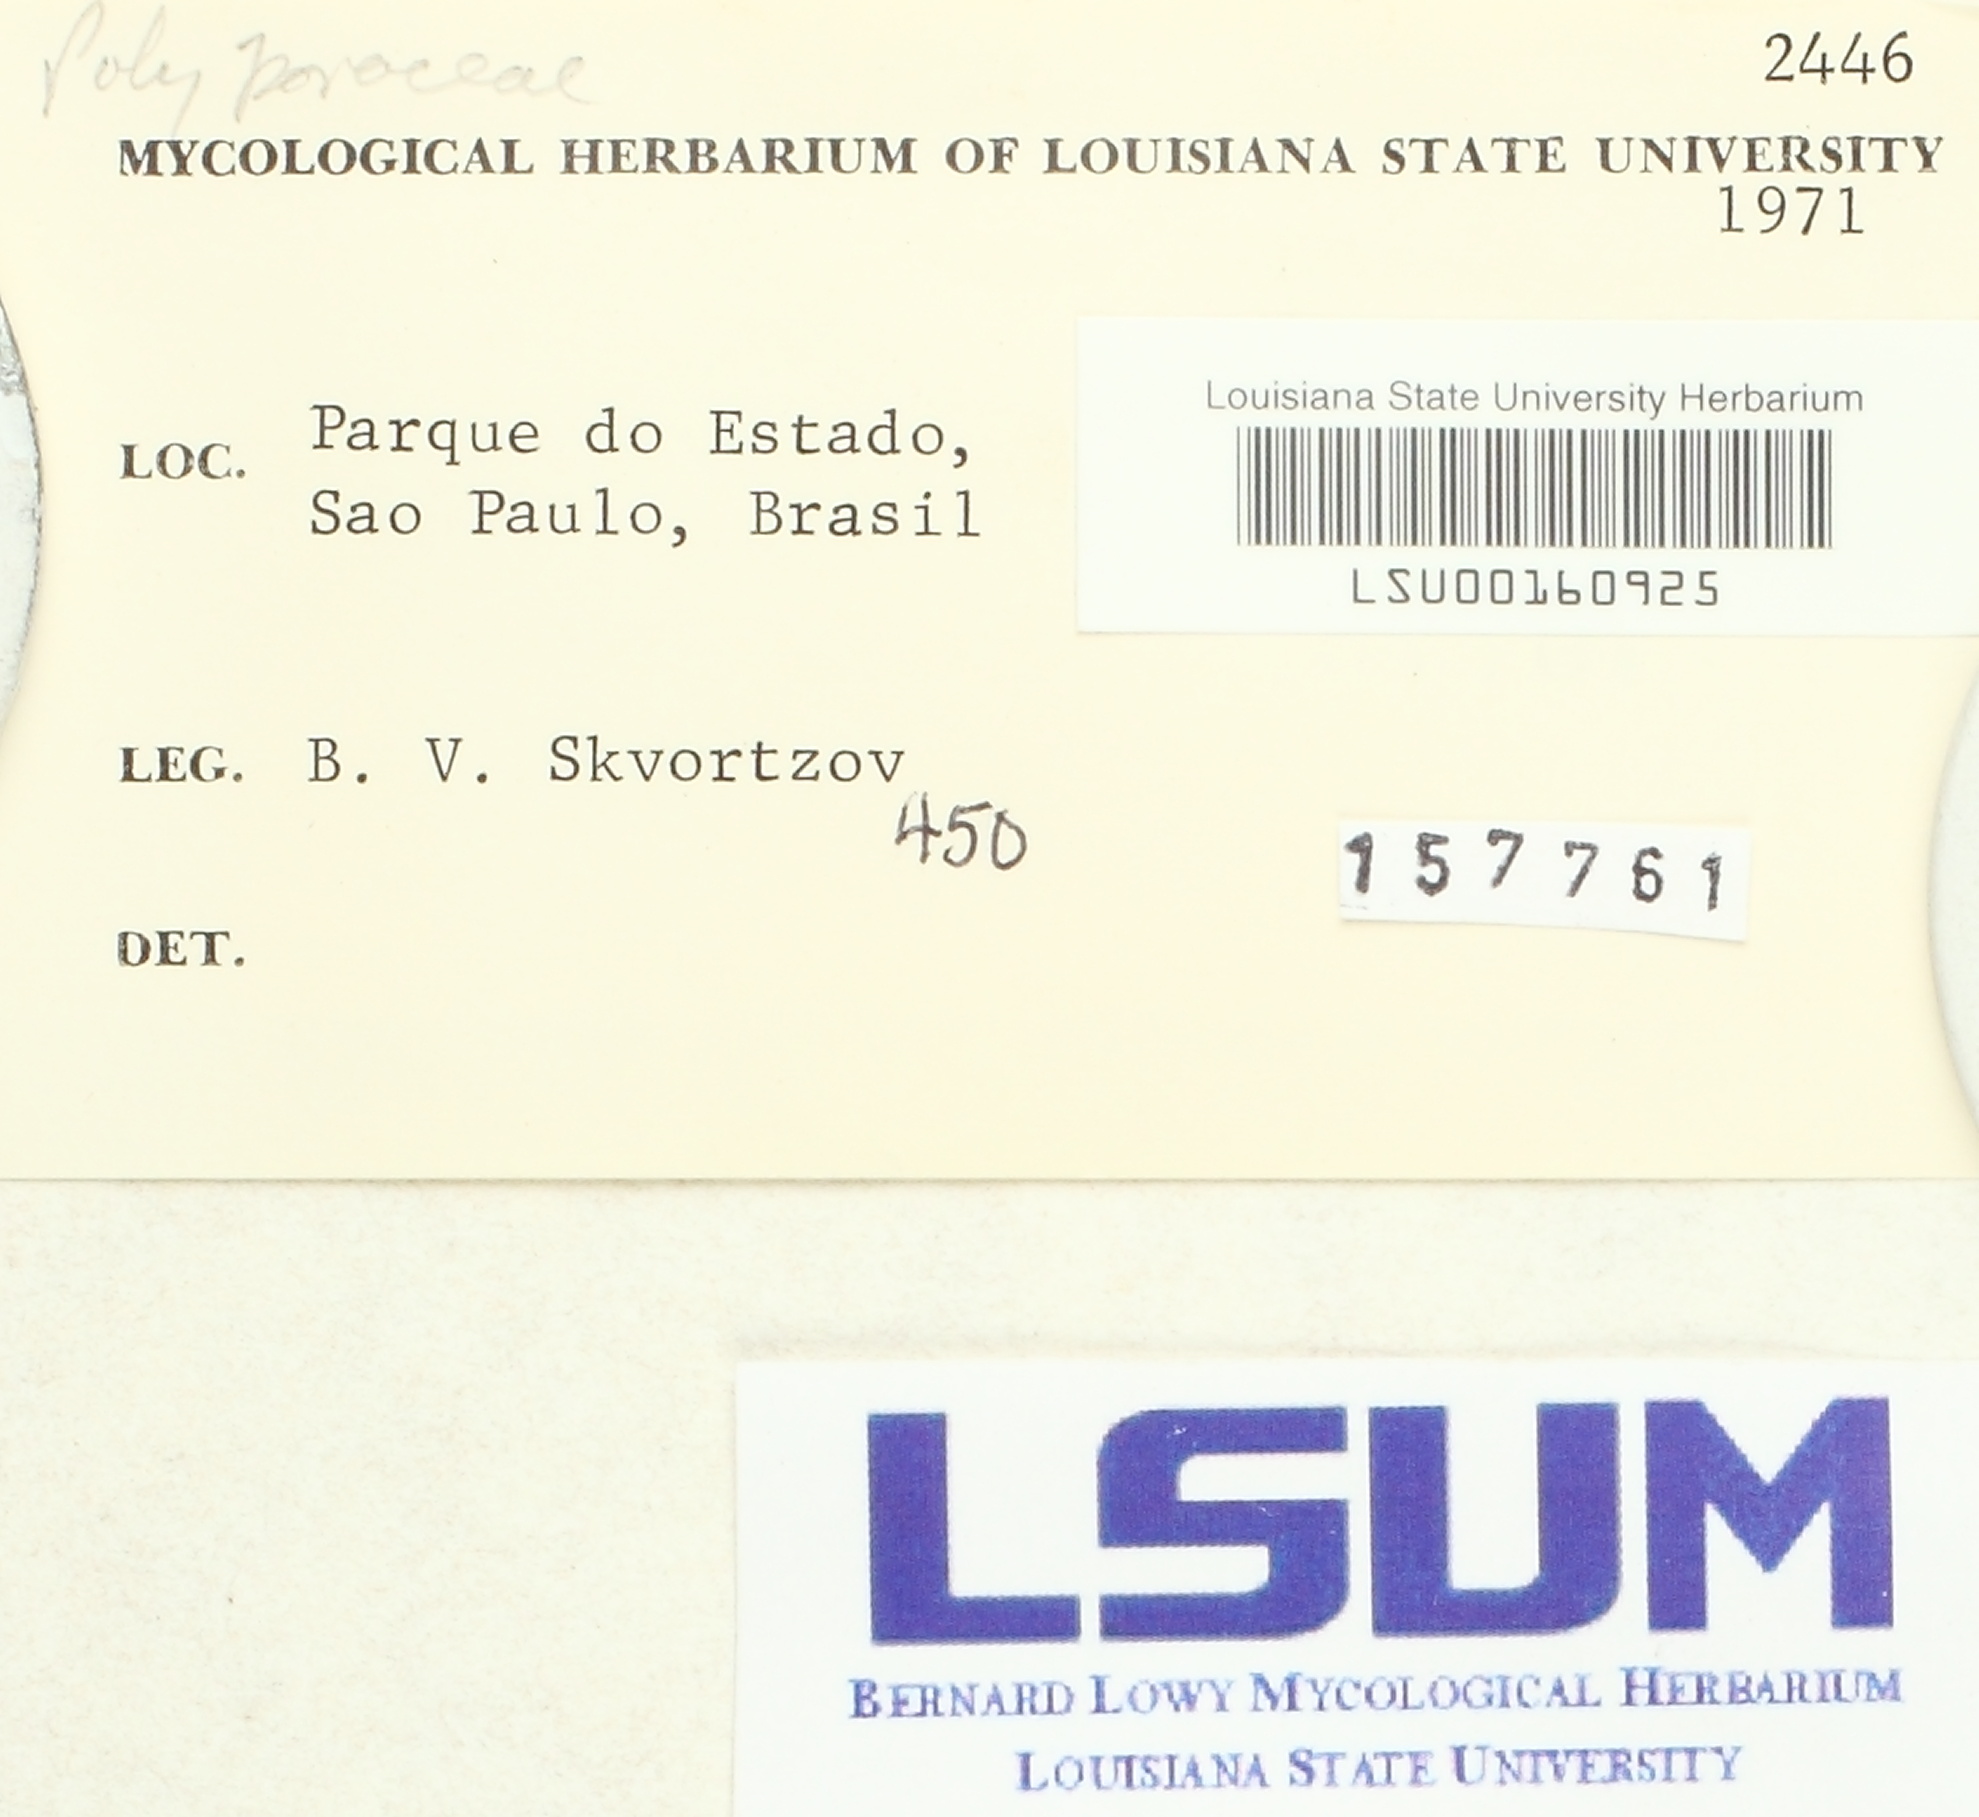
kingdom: Fungi
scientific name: Fungi
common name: Fungi
